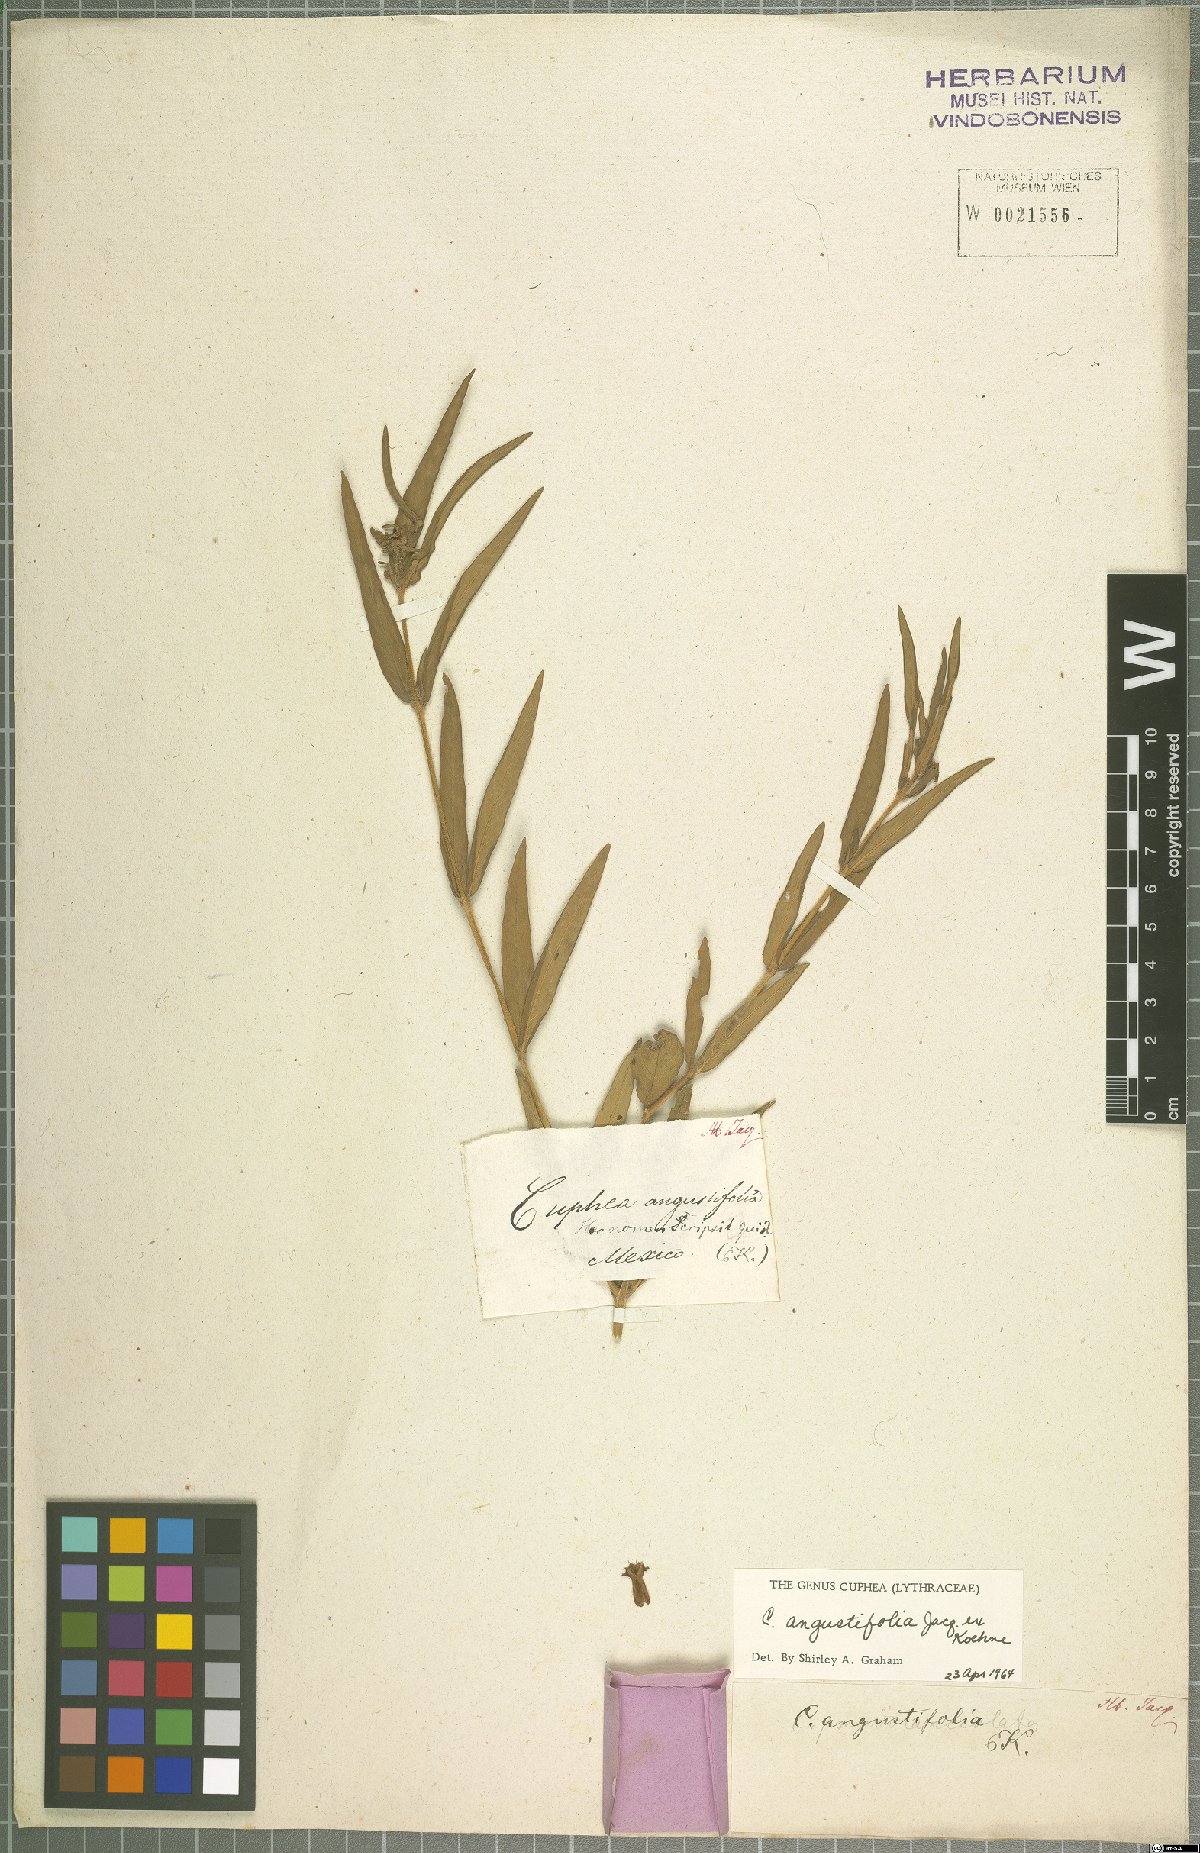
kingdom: Plantae
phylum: Tracheophyta
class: Magnoliopsida
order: Myrtales
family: Lythraceae
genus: Cuphea
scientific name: Cuphea angustifolia
